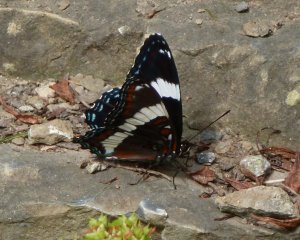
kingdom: Animalia
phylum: Arthropoda
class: Insecta
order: Lepidoptera
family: Nymphalidae
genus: Limenitis
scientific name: Limenitis arthemis
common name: Red-spotted Admiral
